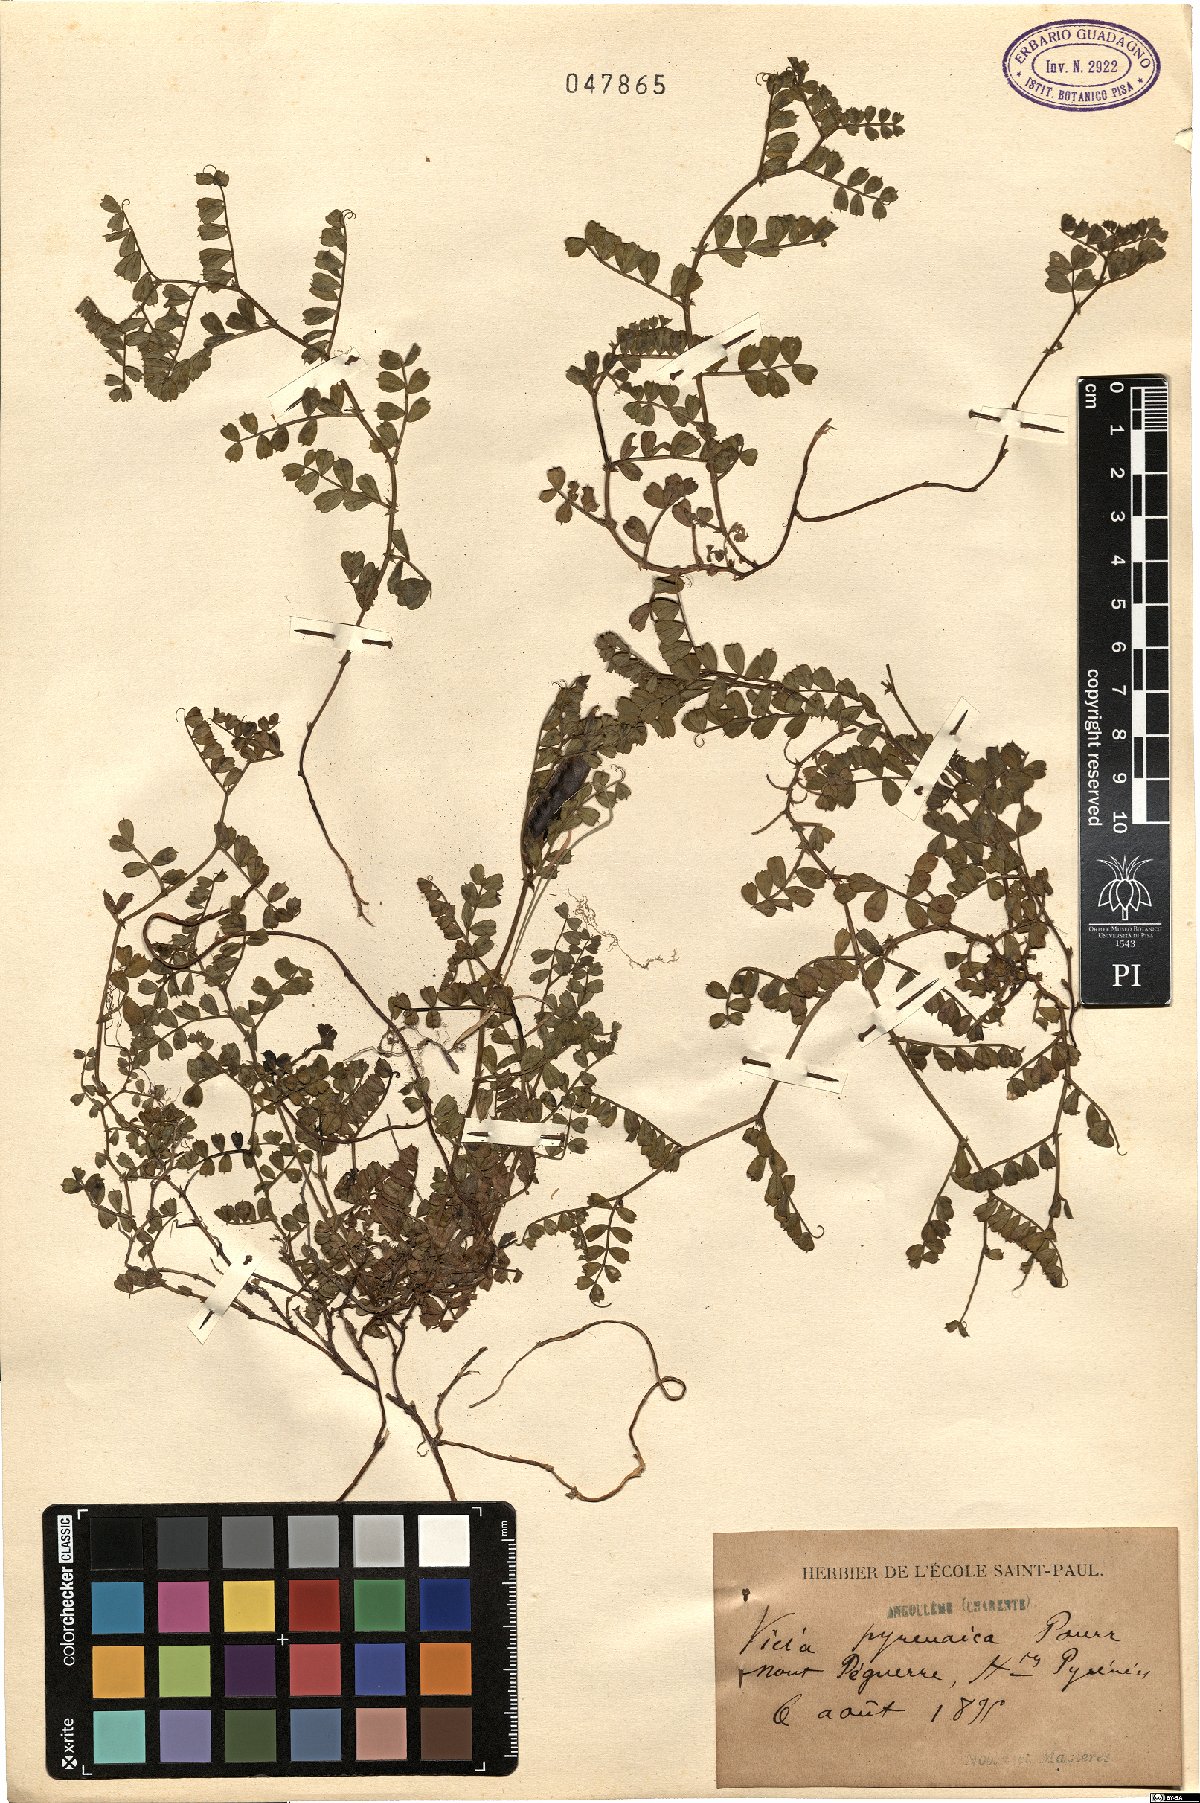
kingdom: Plantae
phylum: Tracheophyta
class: Magnoliopsida
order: Fabales
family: Fabaceae
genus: Vicia
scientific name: Vicia pyrenaica
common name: Pyrenean vetch
